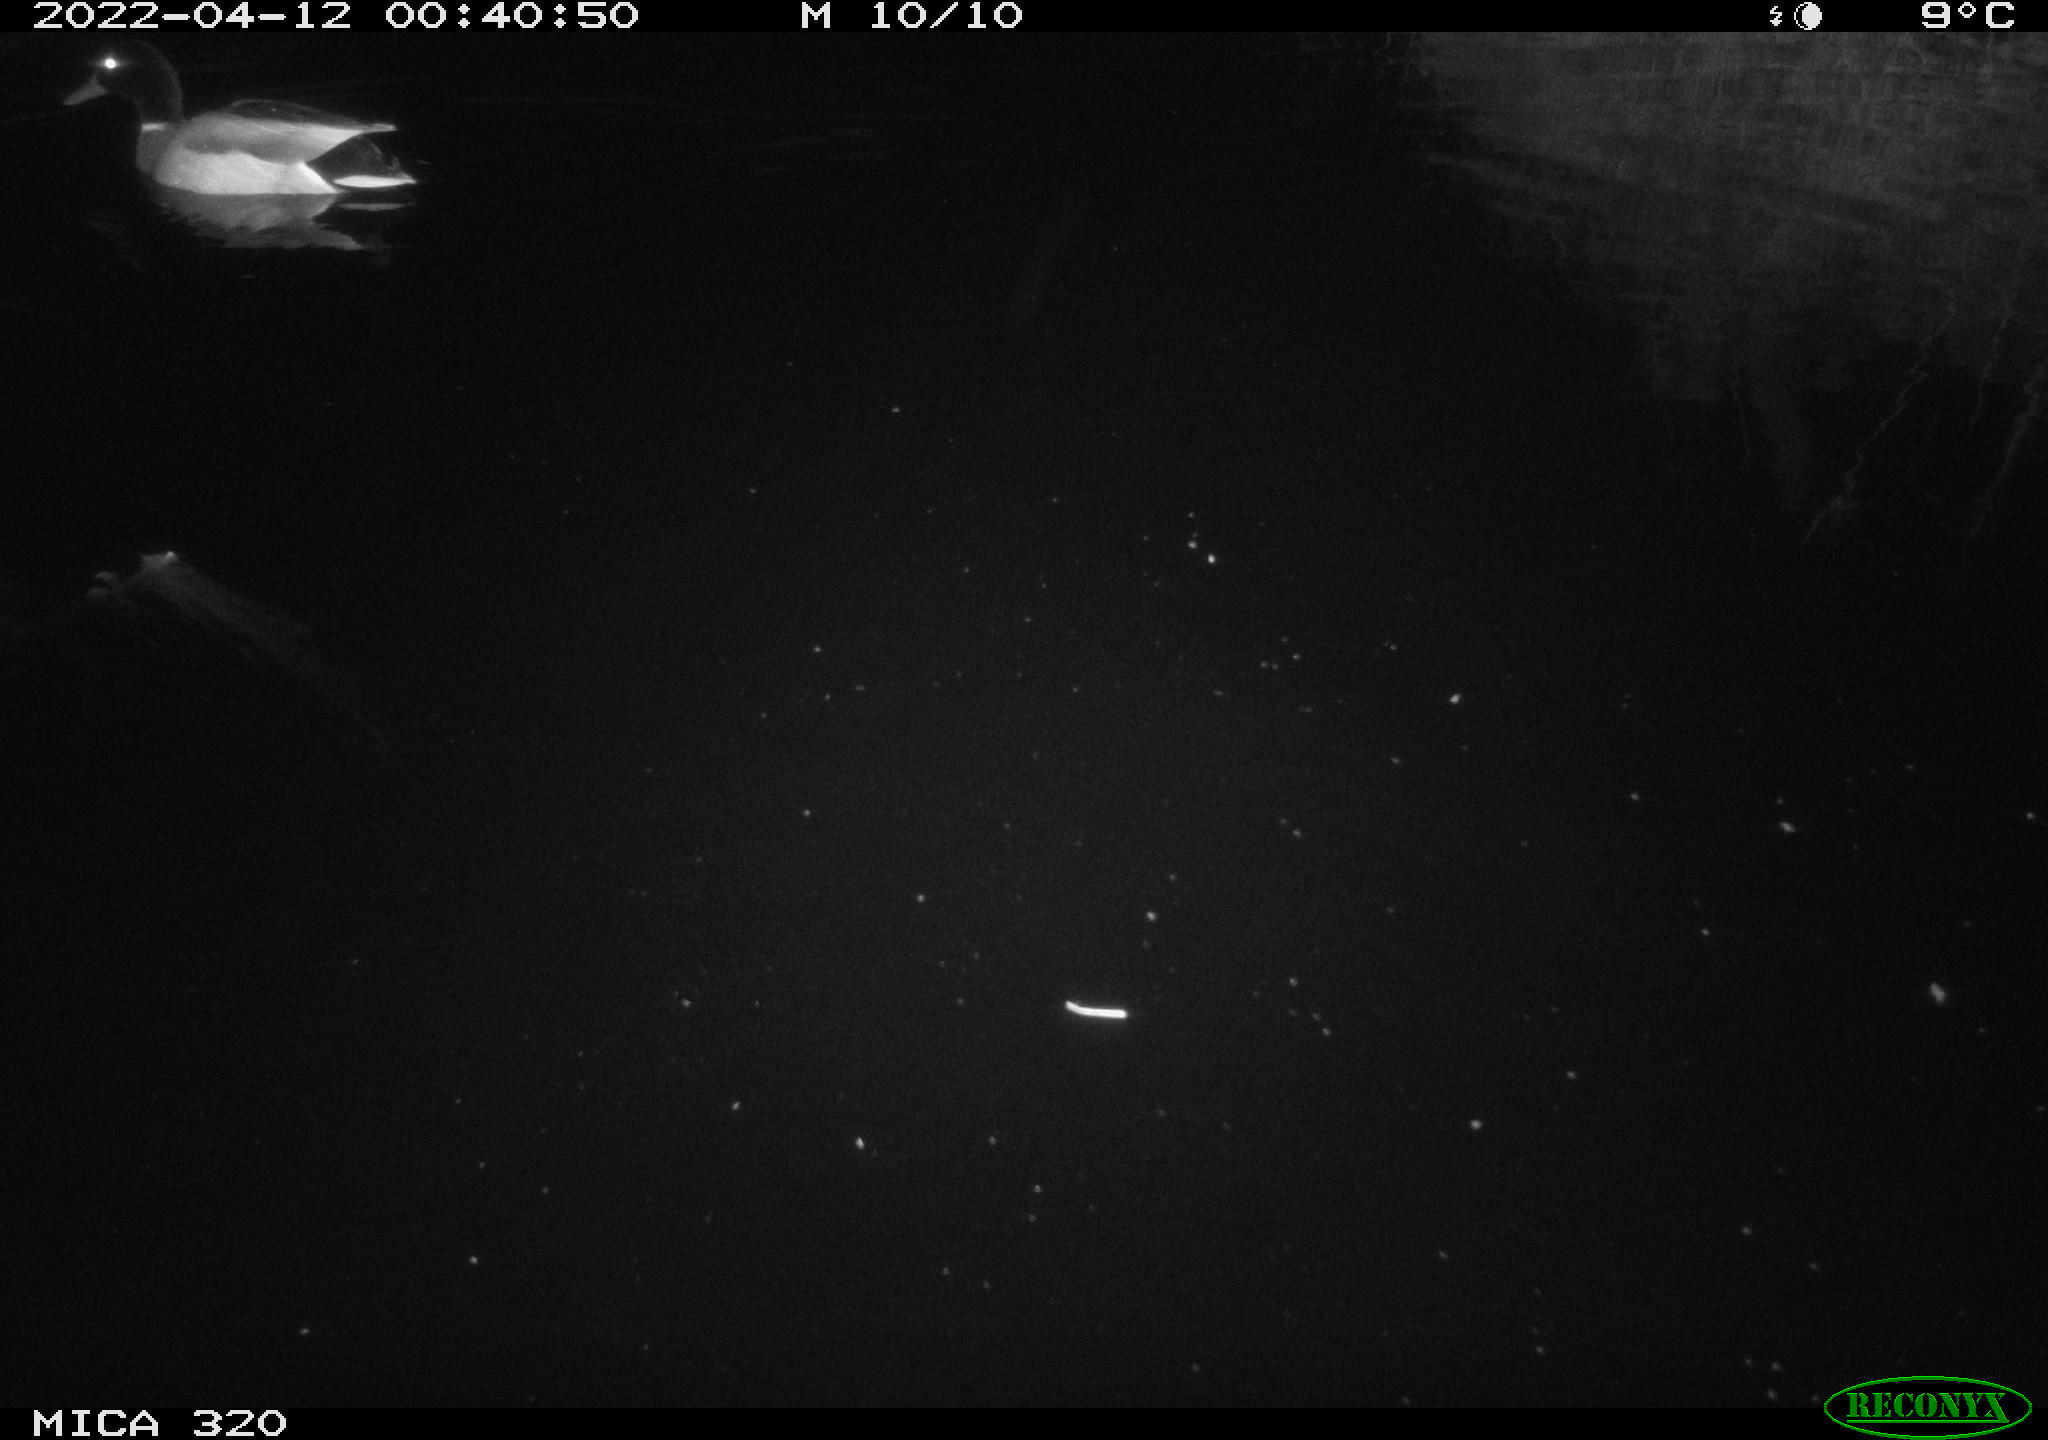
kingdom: Animalia
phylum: Chordata
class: Aves
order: Anseriformes
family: Anatidae
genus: Anas
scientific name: Anas platyrhynchos
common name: Mallard
